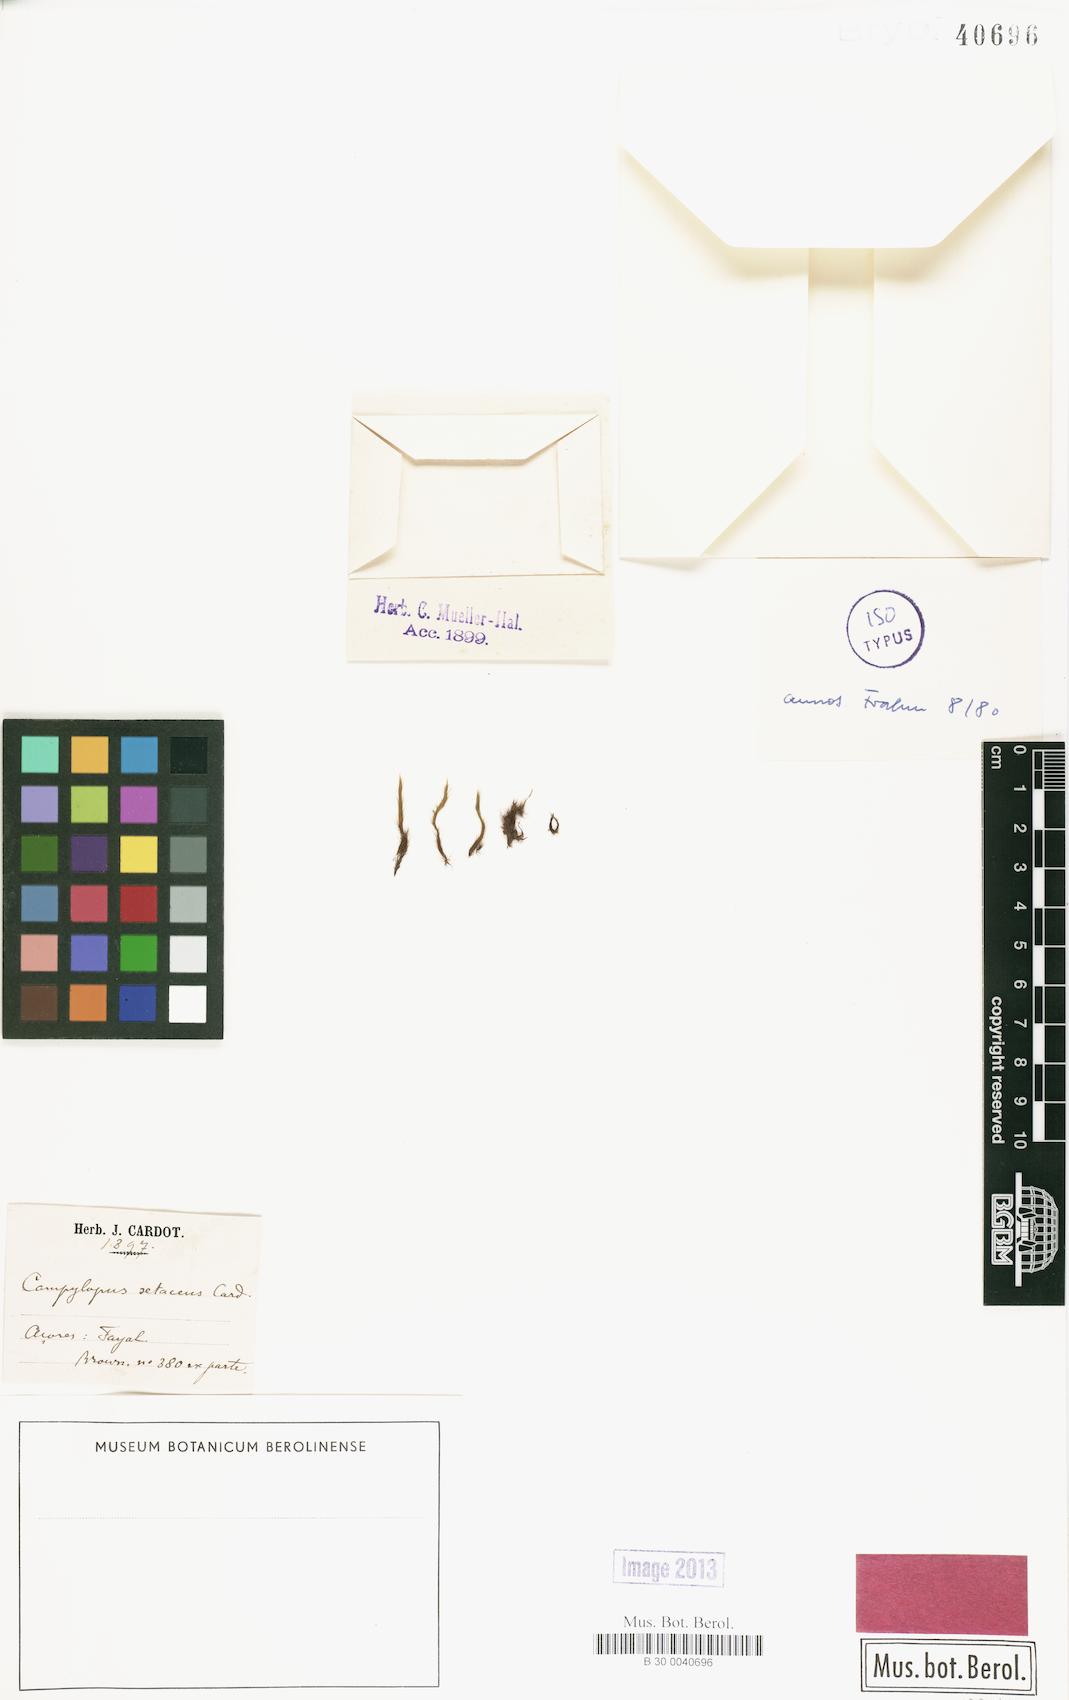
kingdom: Plantae
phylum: Bryophyta
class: Bryopsida
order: Dicranales
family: Leucobryaceae
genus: Campylopus
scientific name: Campylopus cygneus
